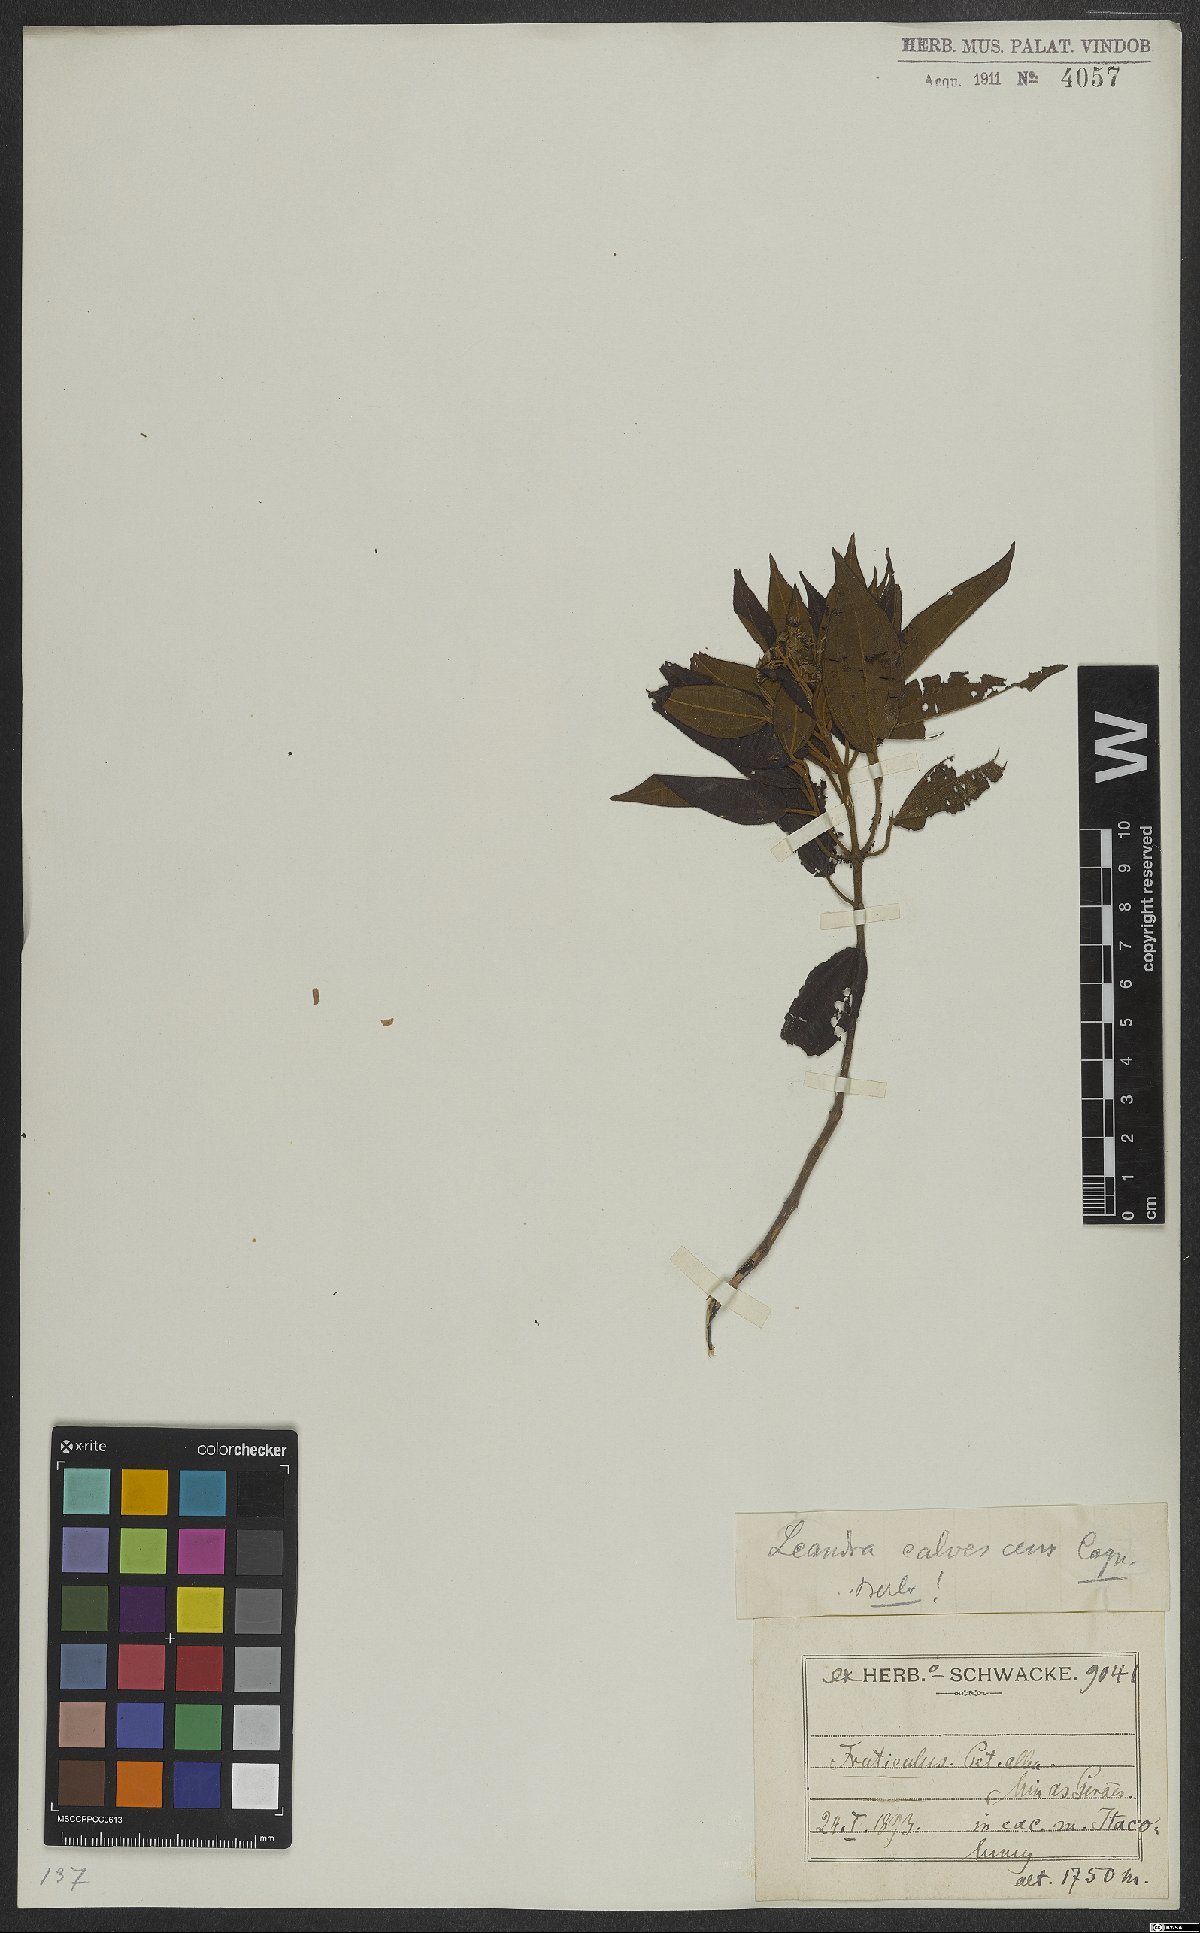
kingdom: Plantae
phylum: Tracheophyta
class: Magnoliopsida
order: Myrtales
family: Melastomataceae
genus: Miconia
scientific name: Miconia leacalvescens
